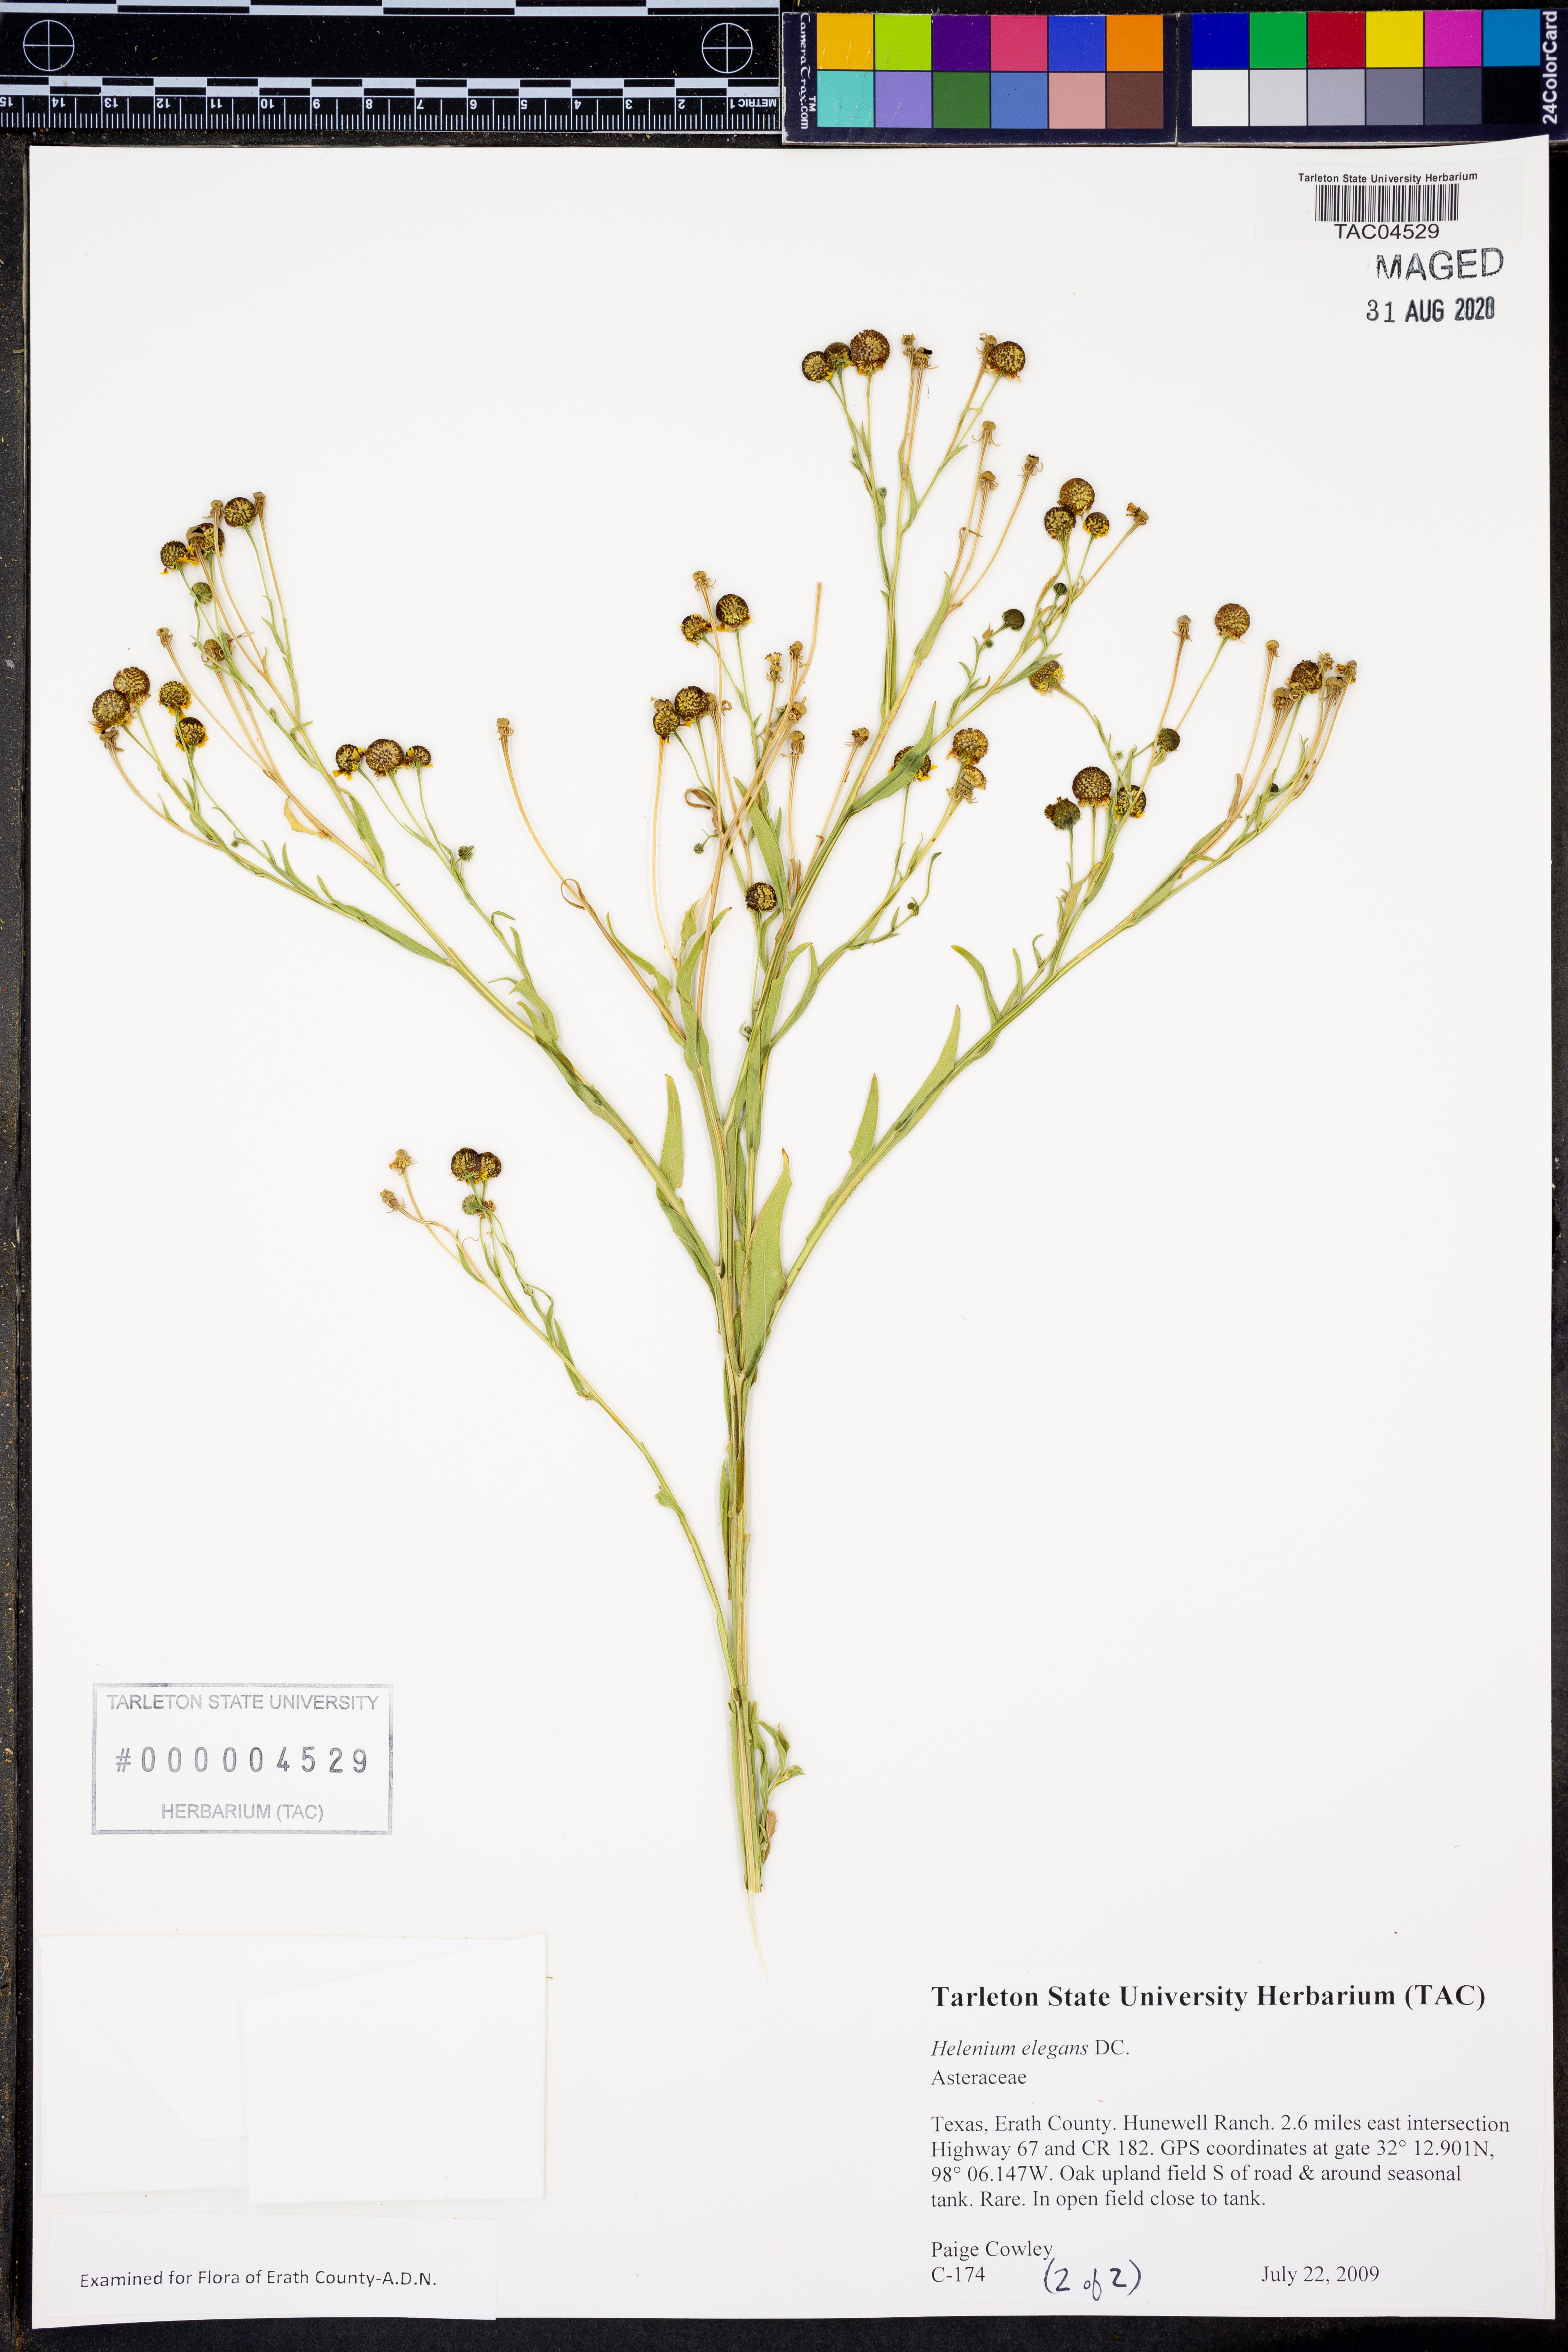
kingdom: Plantae
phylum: Tracheophyta
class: Magnoliopsida
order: Asterales
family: Asteraceae
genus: Helenium
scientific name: Helenium elegans
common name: Pretty sneezeweed
